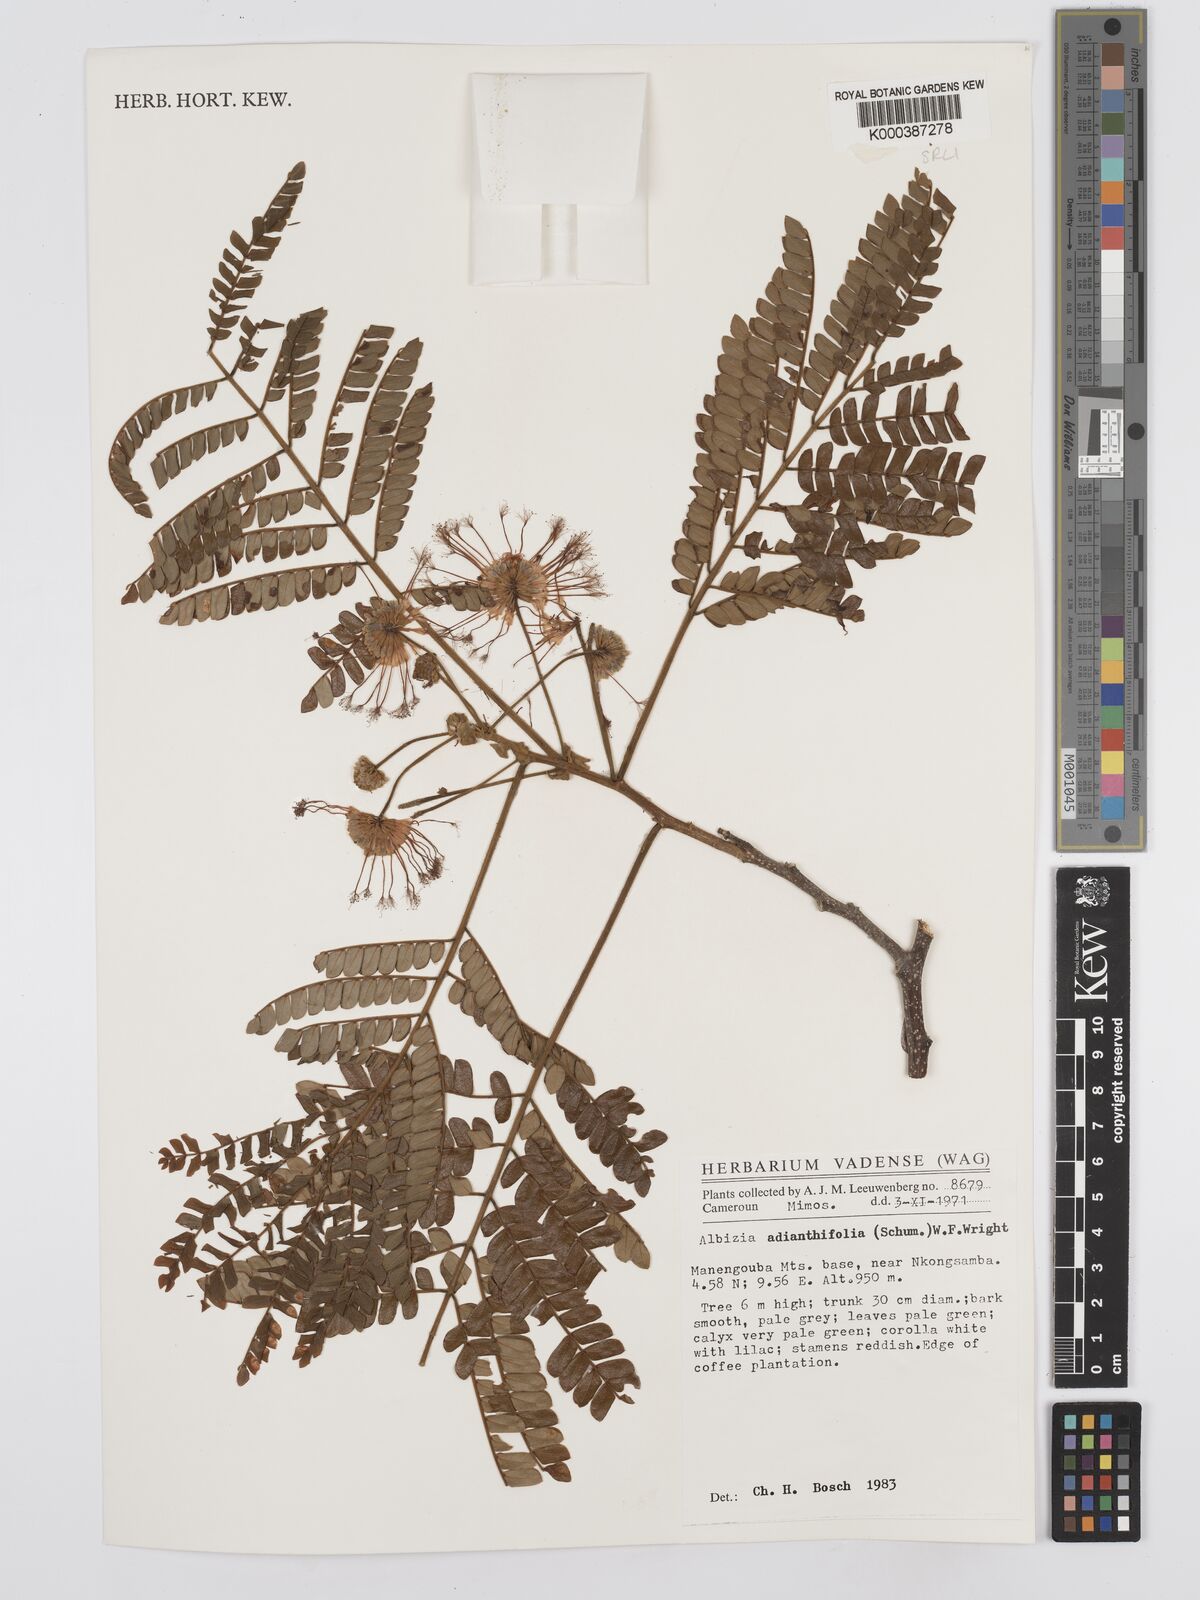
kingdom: Plantae
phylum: Tracheophyta
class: Magnoliopsida
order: Fabales
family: Fabaceae
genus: Albizia
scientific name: Albizia adianthifolia
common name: West african albizia
